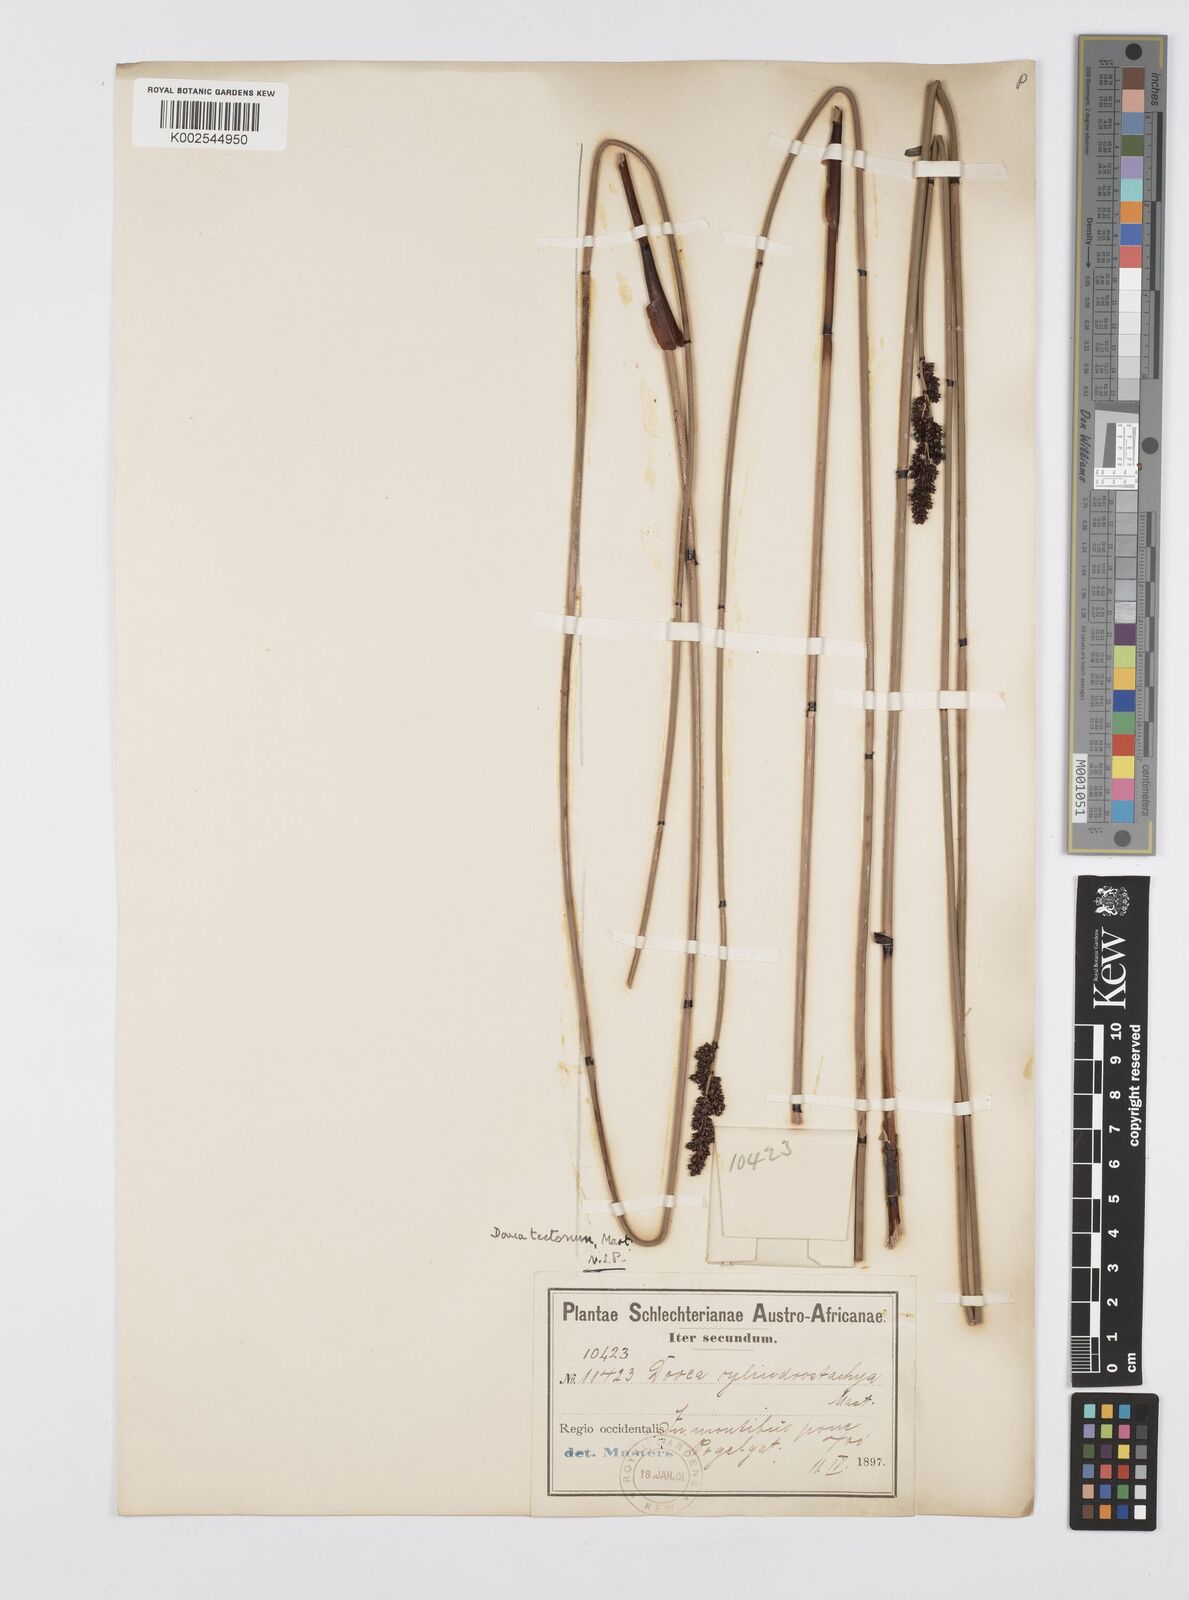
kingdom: Plantae
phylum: Tracheophyta
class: Liliopsida
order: Poales
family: Restionaceae
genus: Elegia
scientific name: Elegia tectorum
